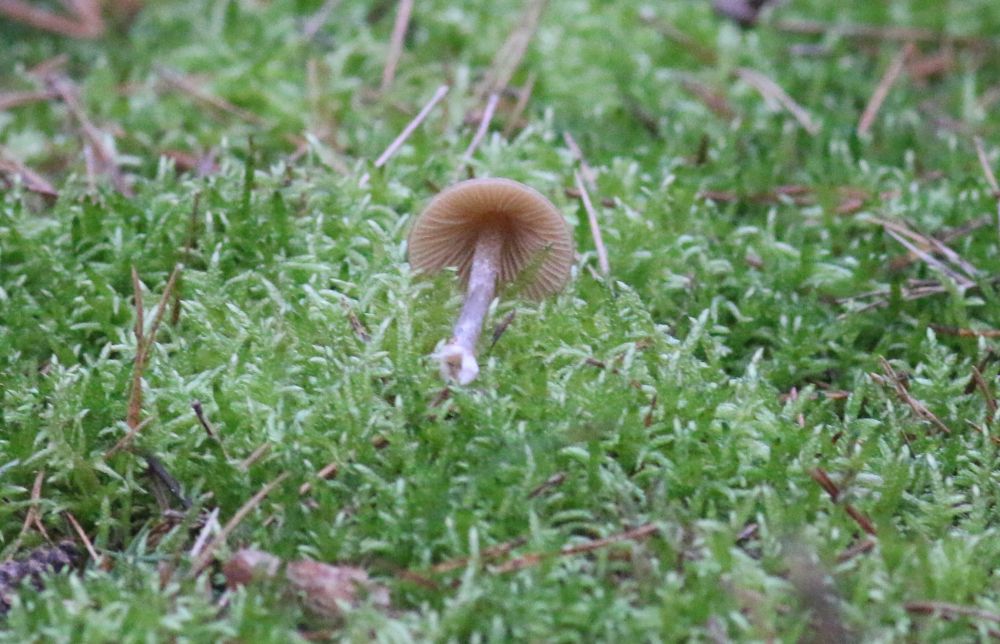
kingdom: Fungi
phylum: Basidiomycota
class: Agaricomycetes
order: Agaricales
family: Entolomataceae
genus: Entoloma
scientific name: Entoloma cetratum
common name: voks-rødblad
